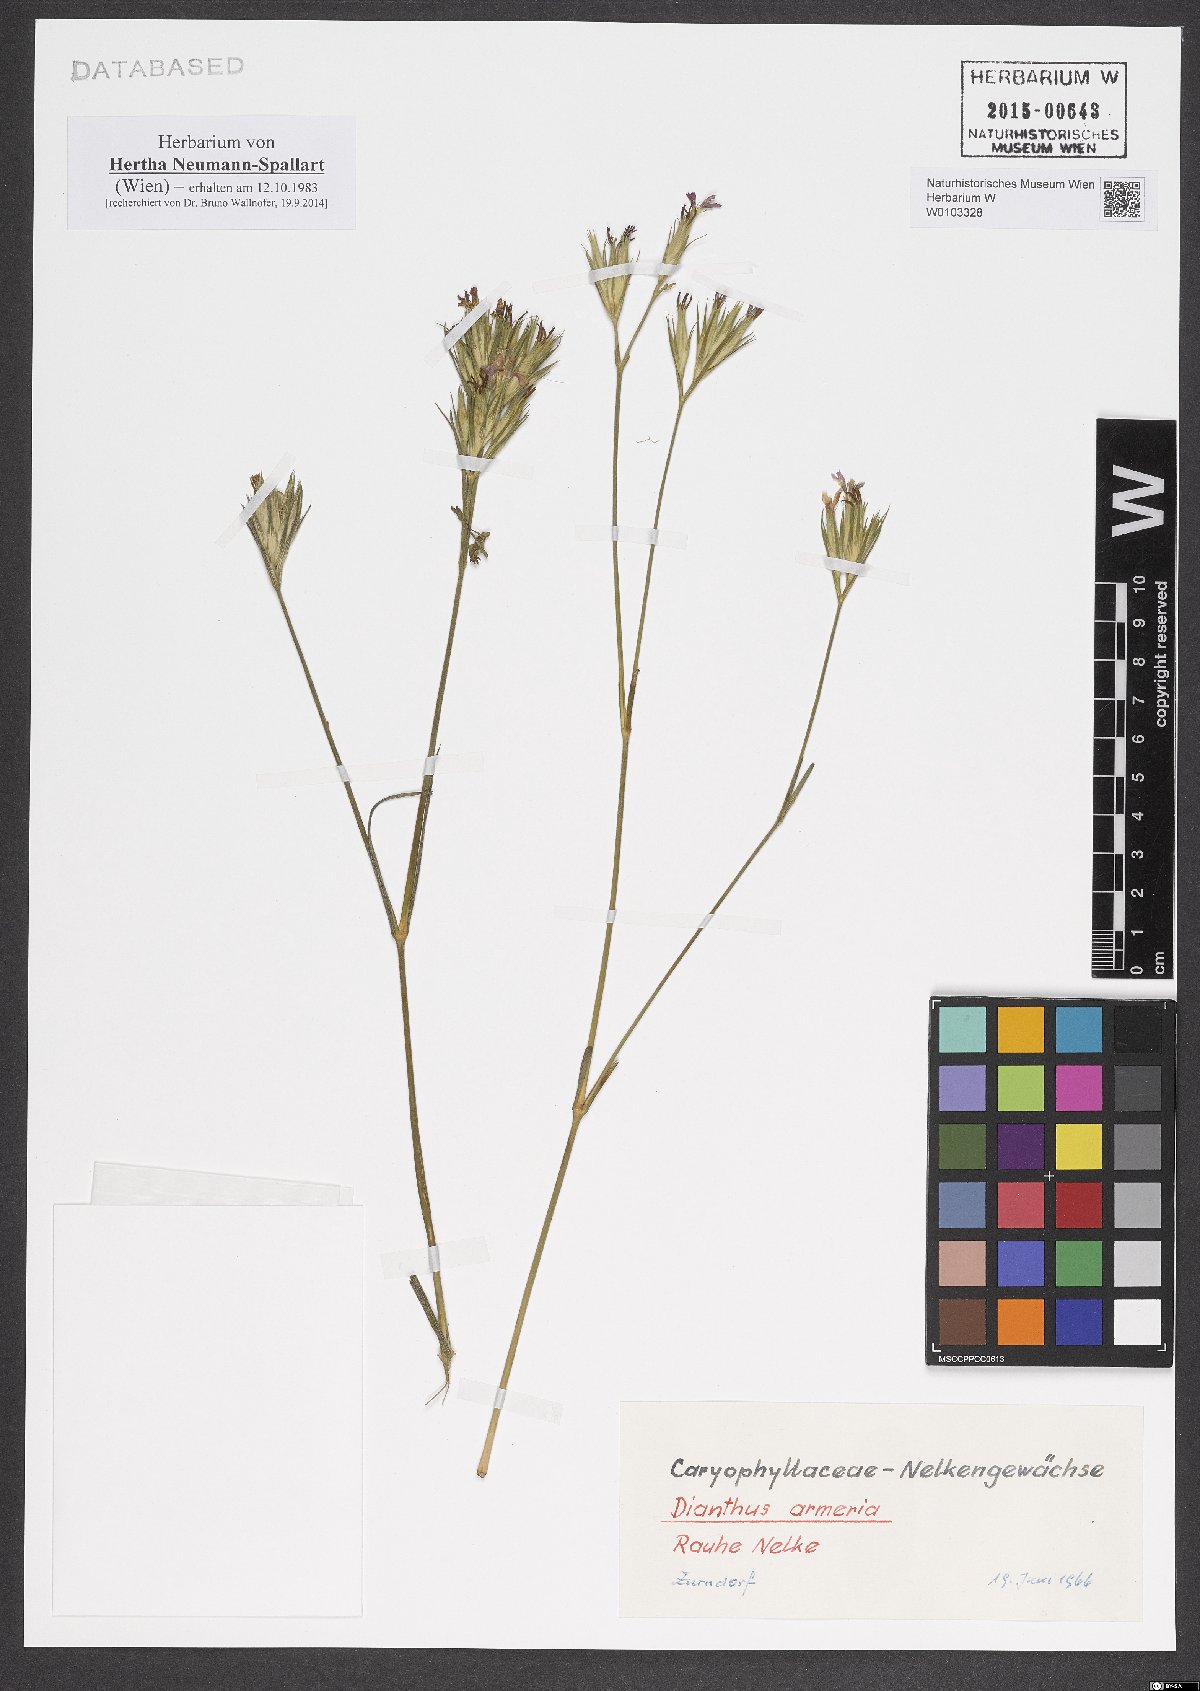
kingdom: Plantae
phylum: Tracheophyta
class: Magnoliopsida
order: Caryophyllales
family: Caryophyllaceae
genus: Dianthus
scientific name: Dianthus armeria
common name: Deptford pink
